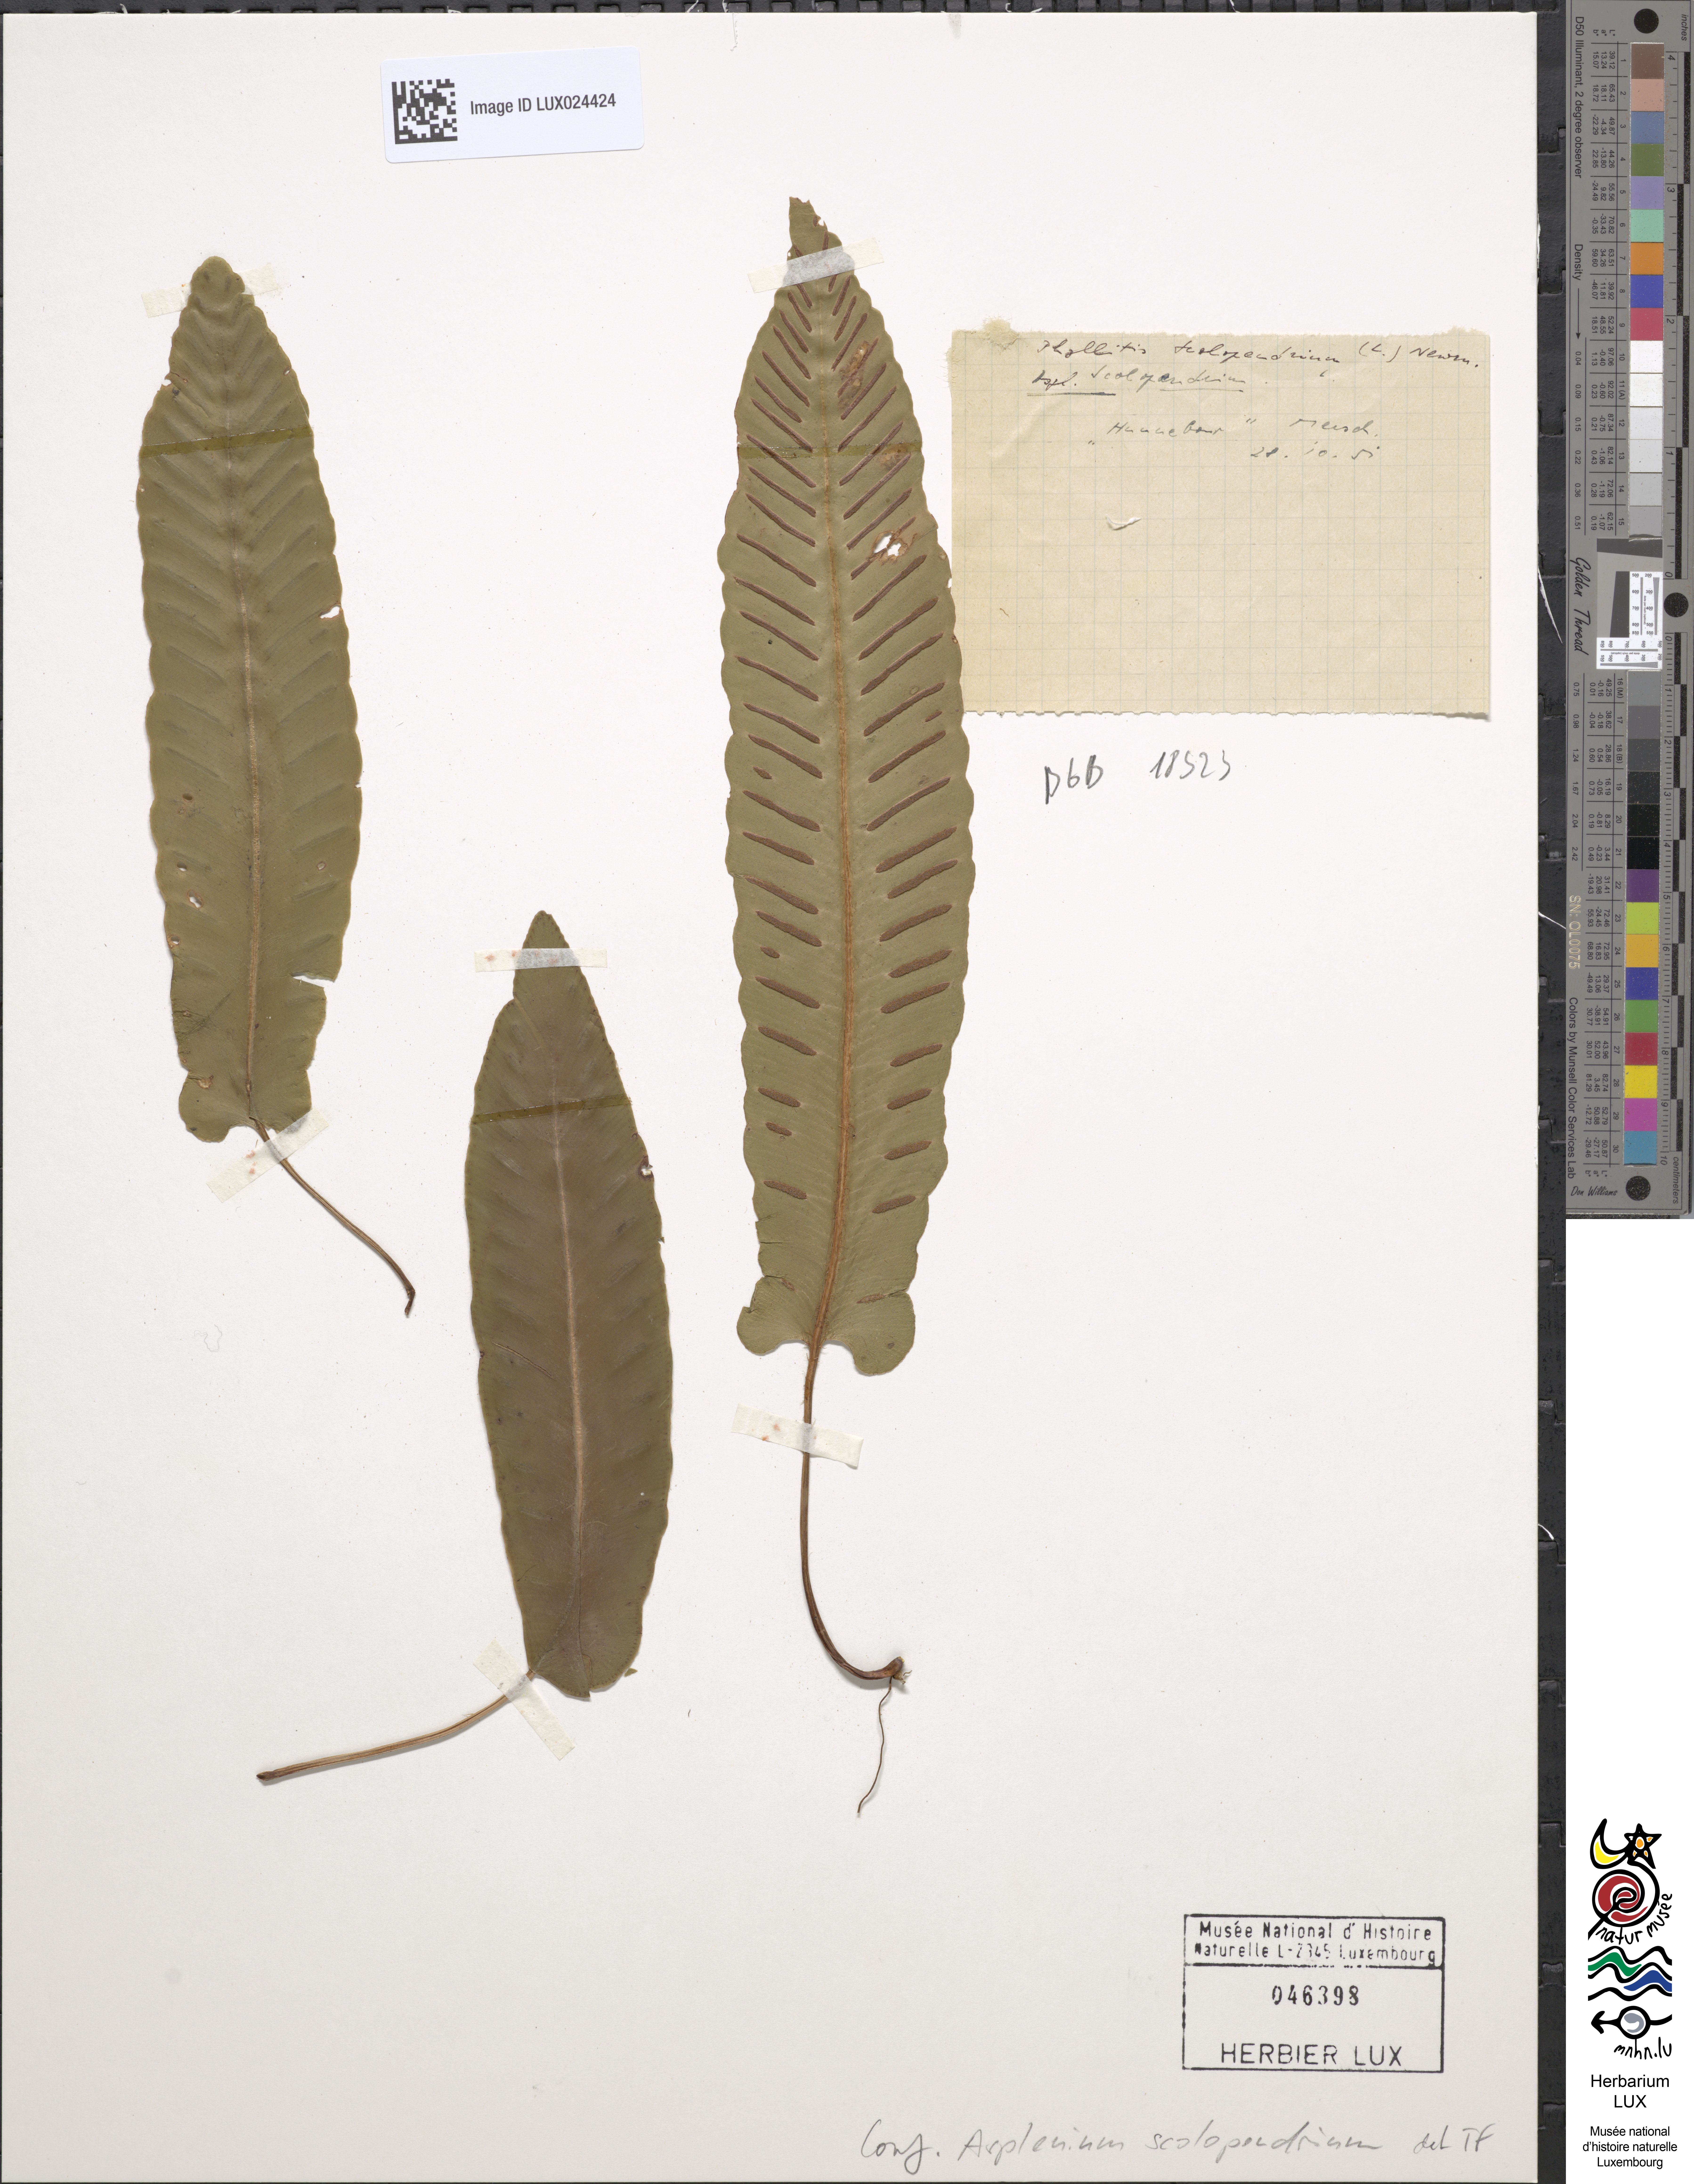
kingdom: Plantae
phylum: Tracheophyta
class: Polypodiopsida
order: Polypodiales
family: Aspleniaceae
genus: Asplenium
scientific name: Asplenium scolopendrium
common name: Hart's-tongue fern
